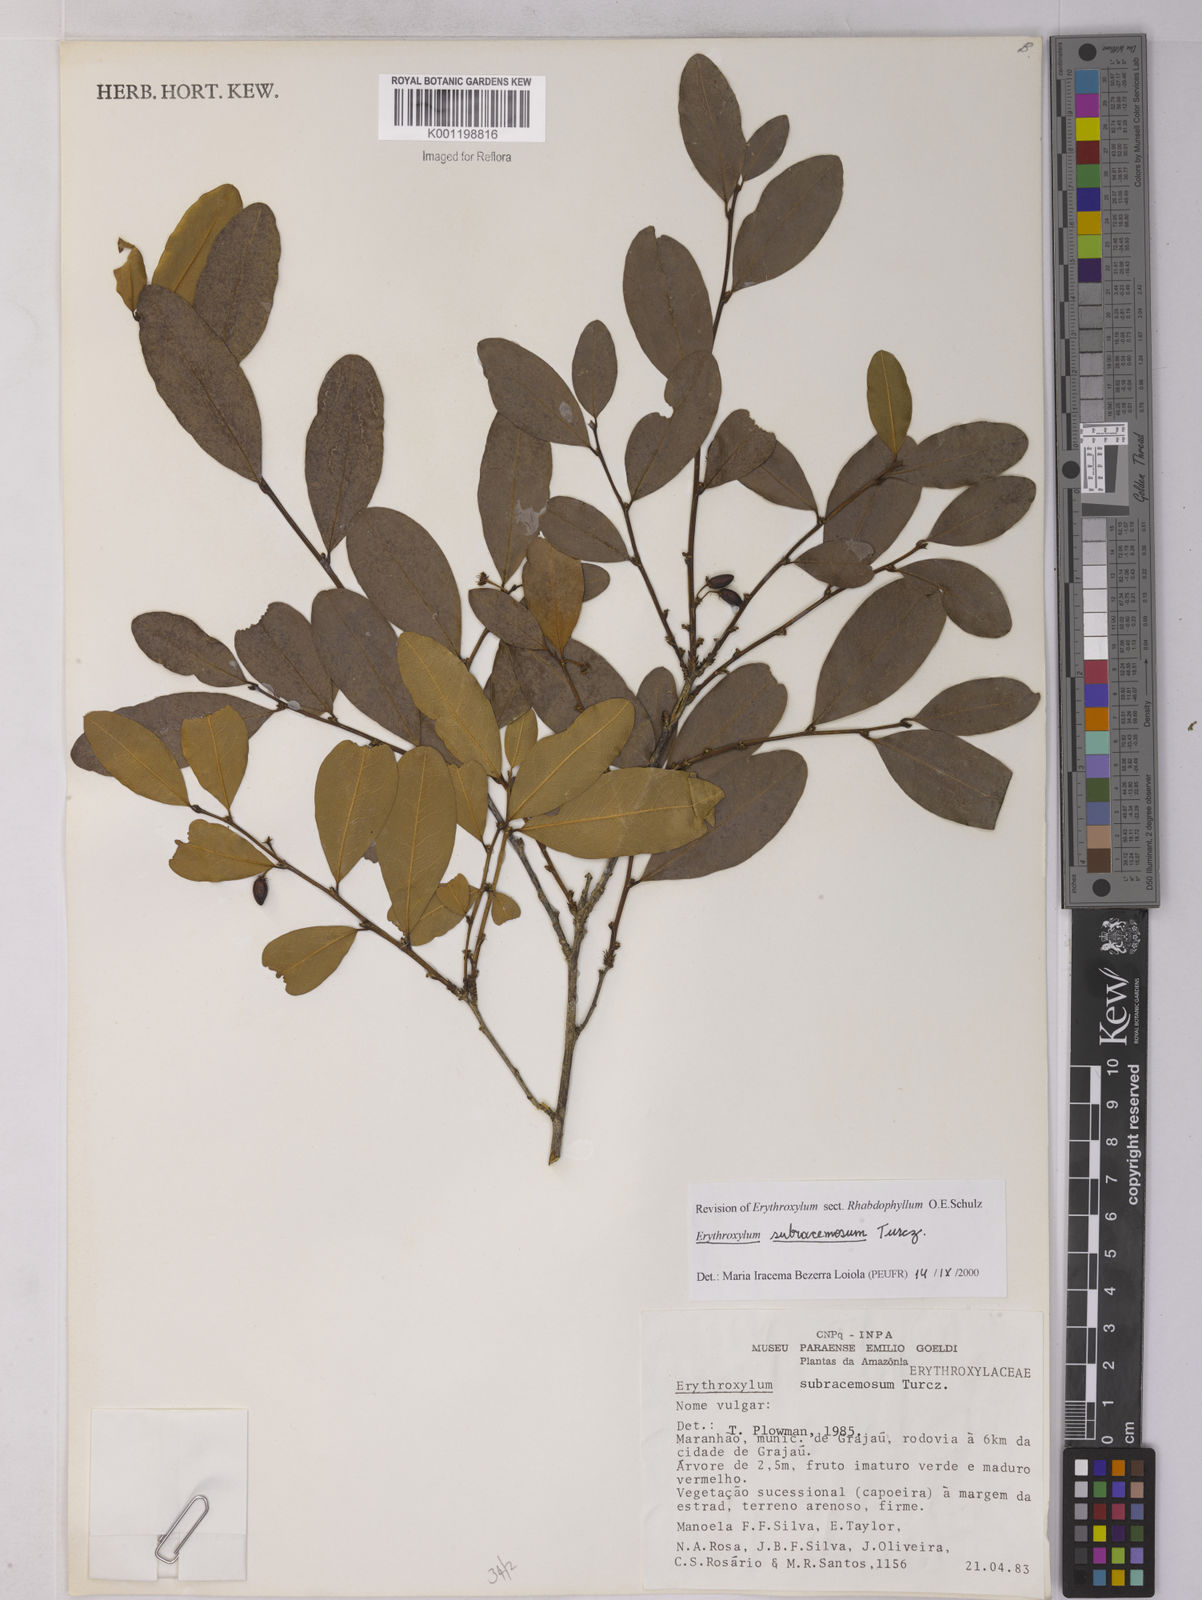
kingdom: Plantae
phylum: Tracheophyta
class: Magnoliopsida
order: Malpighiales
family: Erythroxylaceae
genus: Erythroxylum
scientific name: Erythroxylum subracemosum
